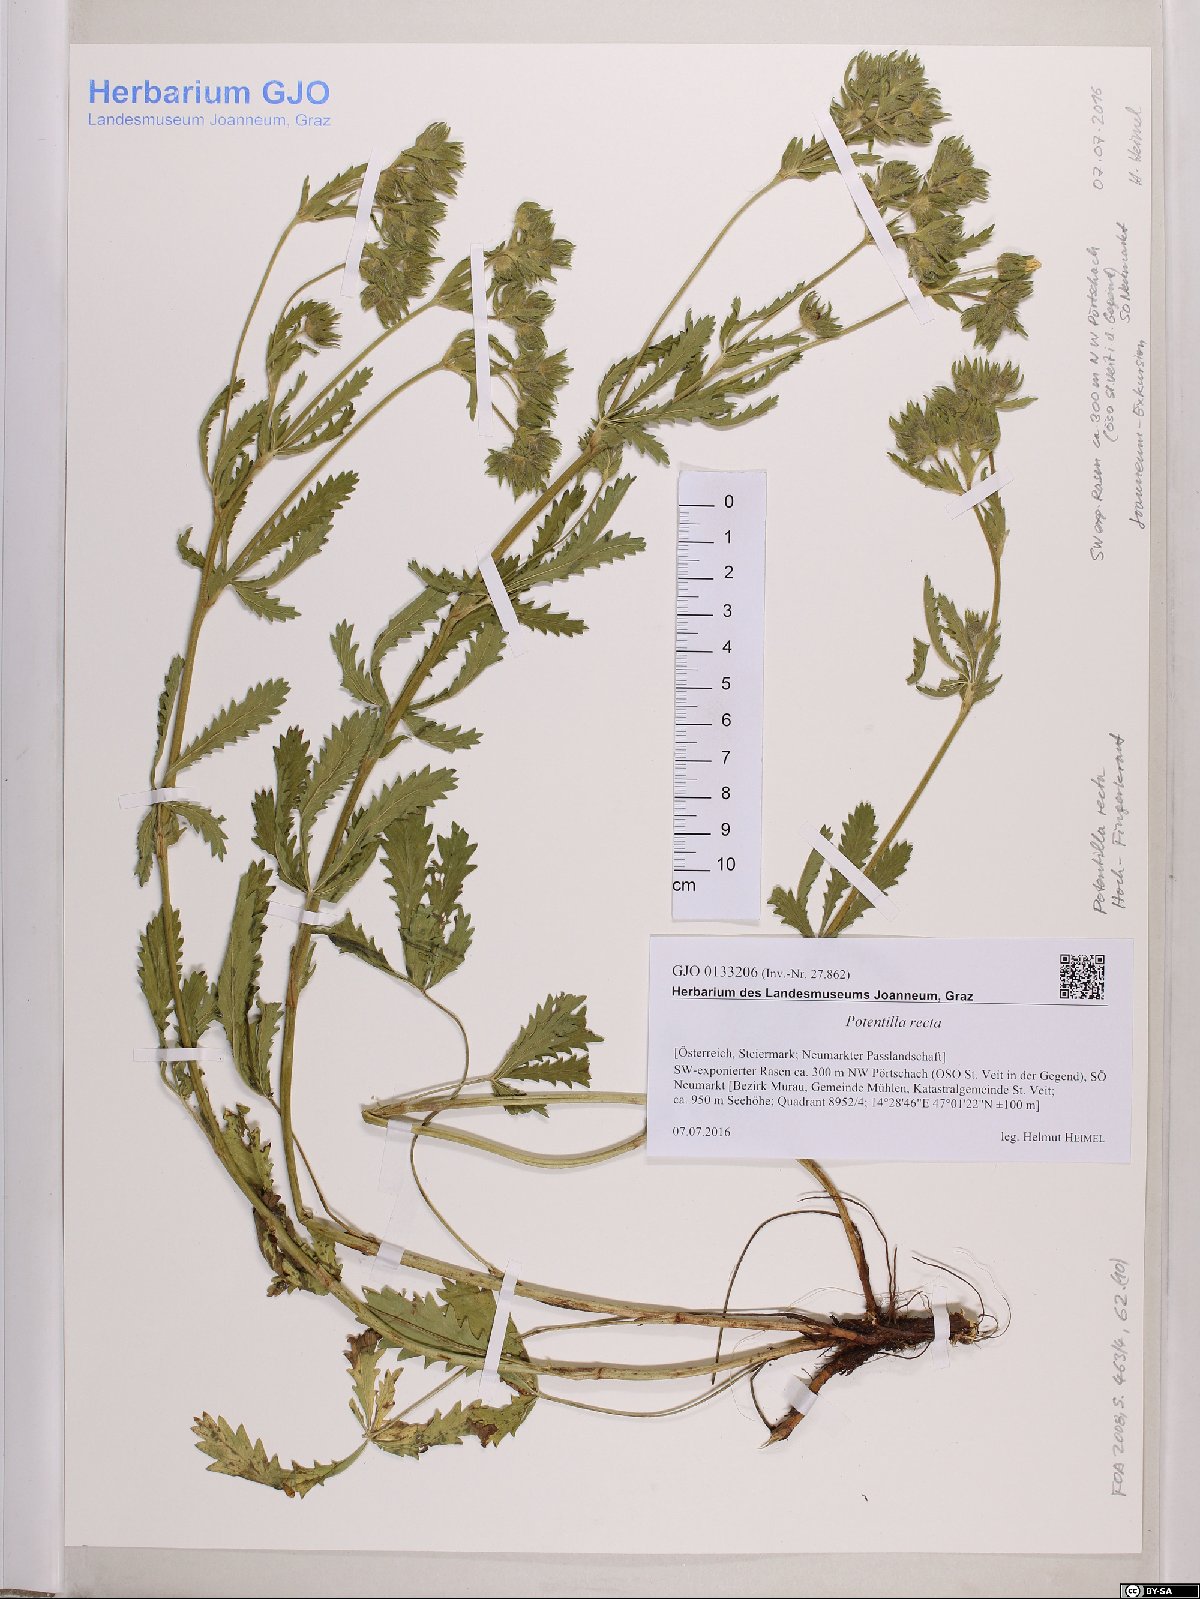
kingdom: Plantae
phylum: Tracheophyta
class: Magnoliopsida
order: Rosales
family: Rosaceae
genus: Potentilla
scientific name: Potentilla recta
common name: Sulphur cinquefoil
